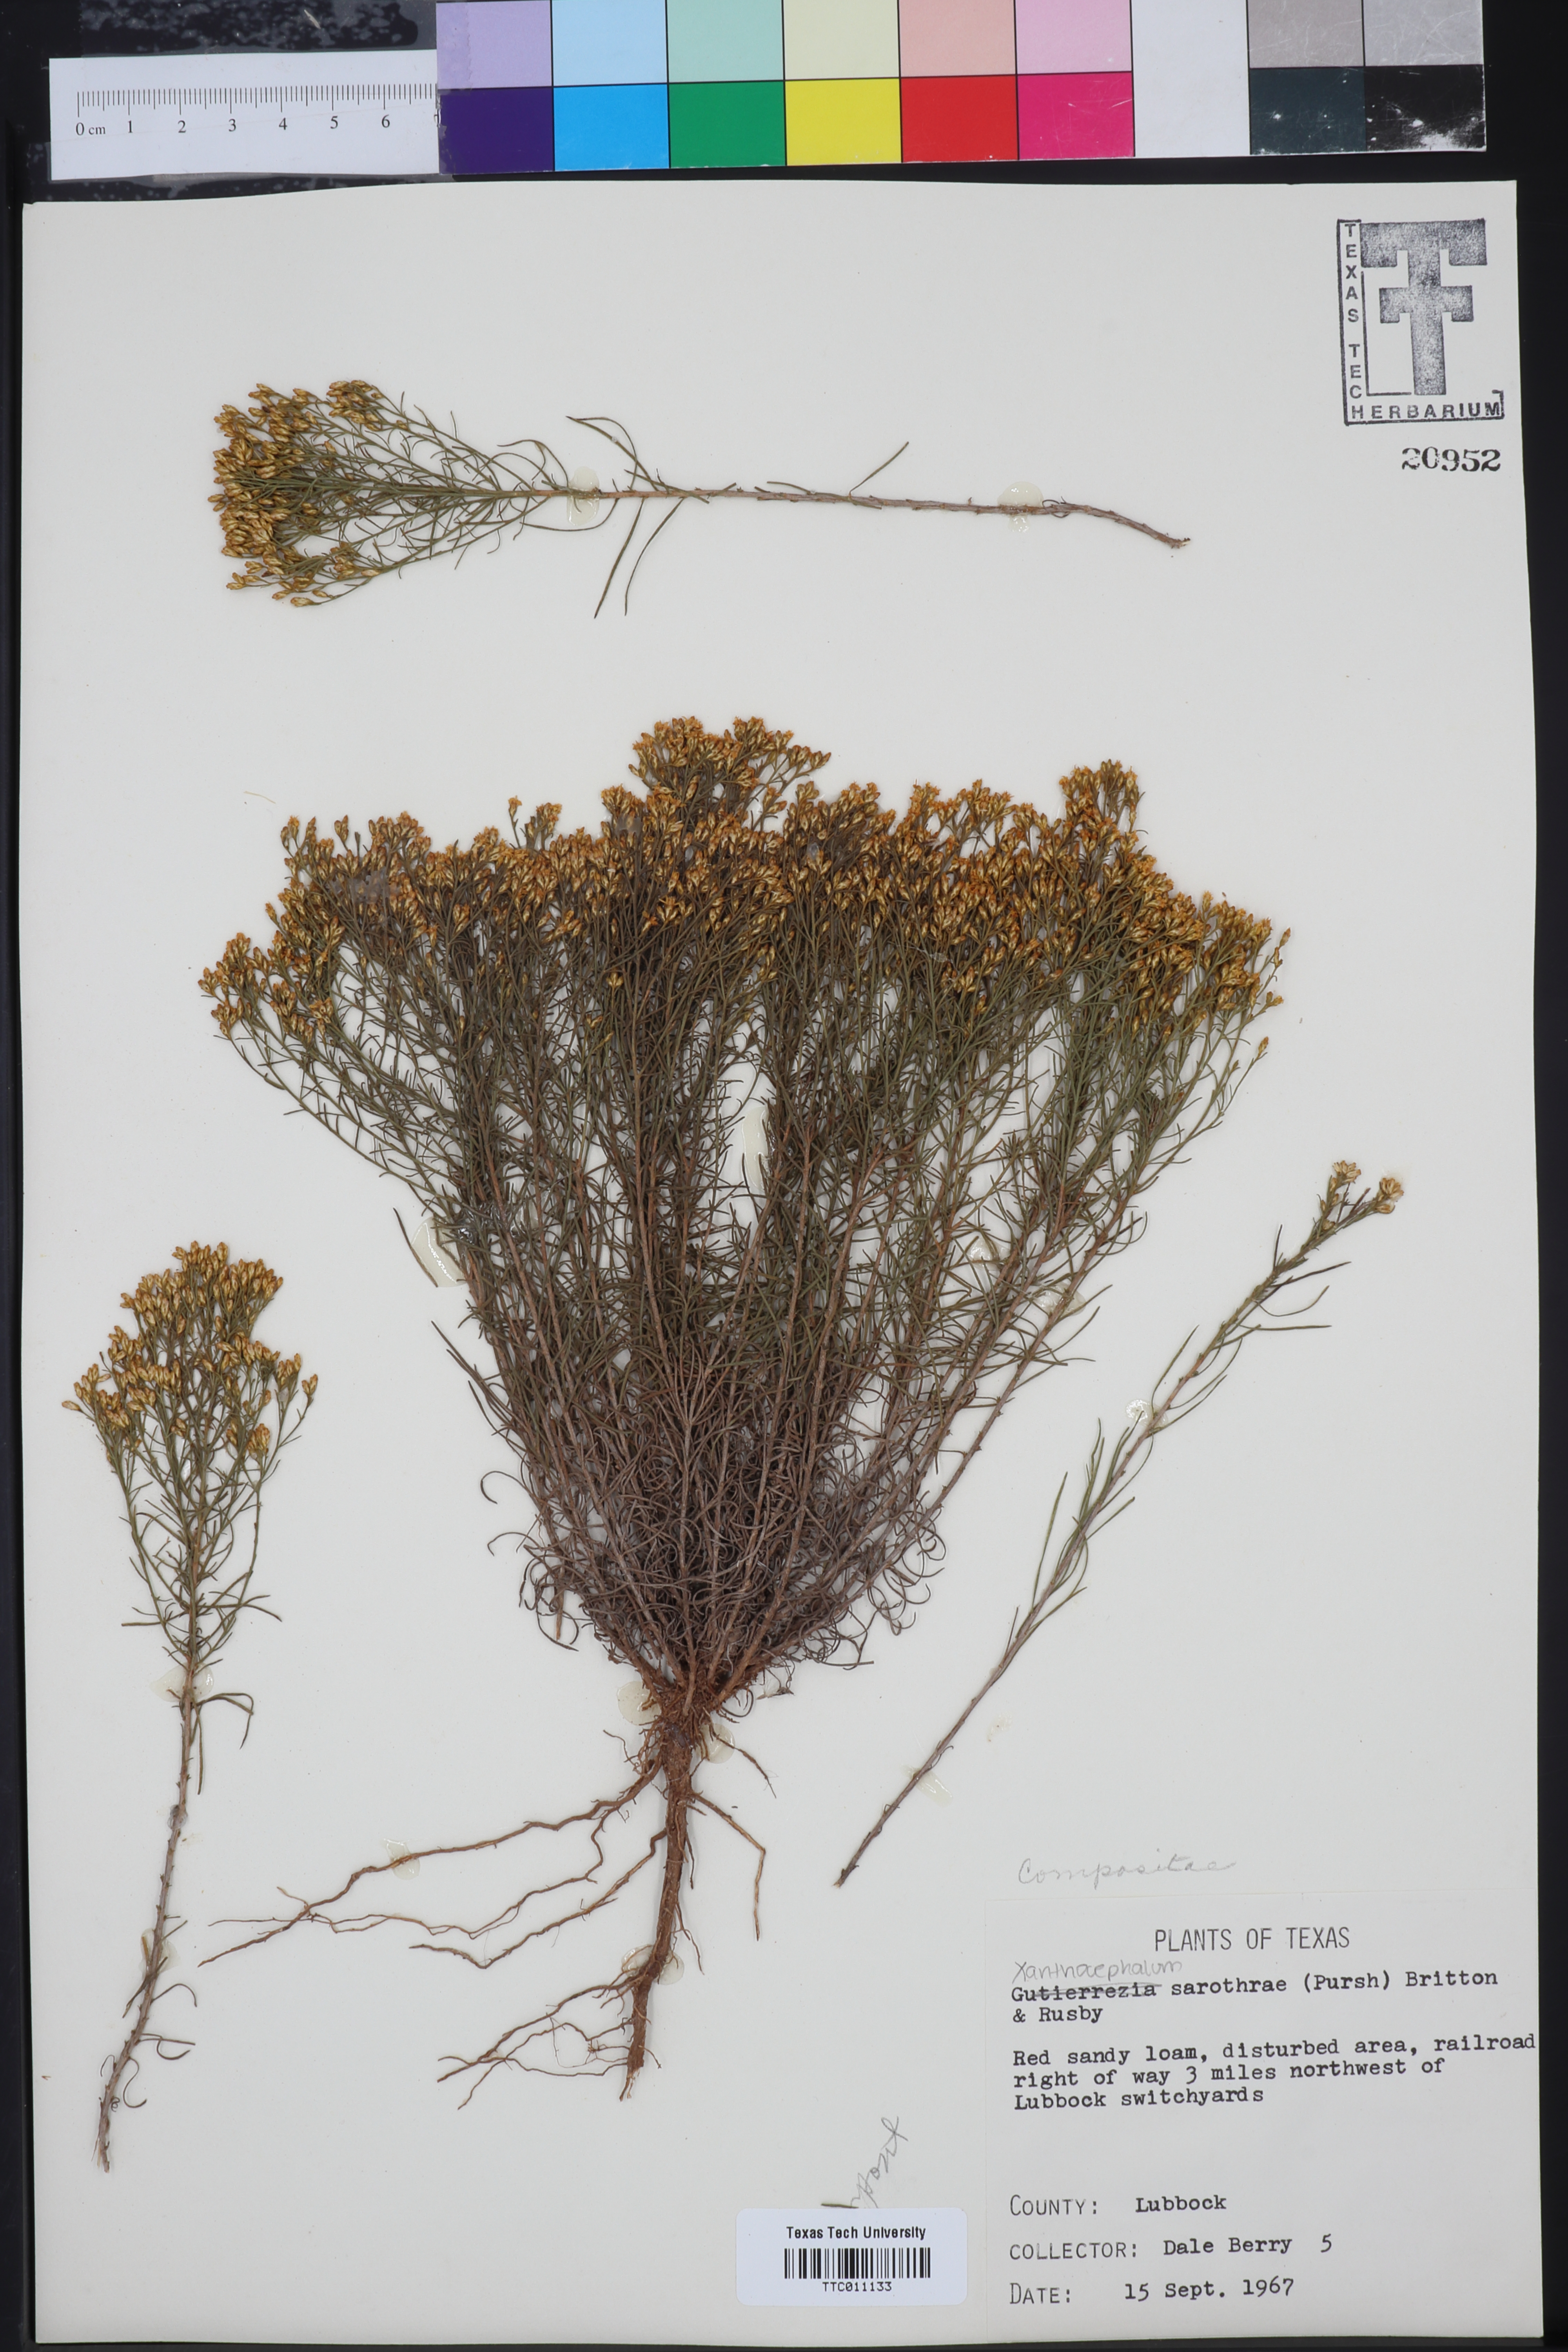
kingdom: Plantae
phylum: Tracheophyta
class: Magnoliopsida
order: Asterales
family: Asteraceae
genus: Gutierrezia
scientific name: Gutierrezia sarothrae
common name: Broom snakeweed
